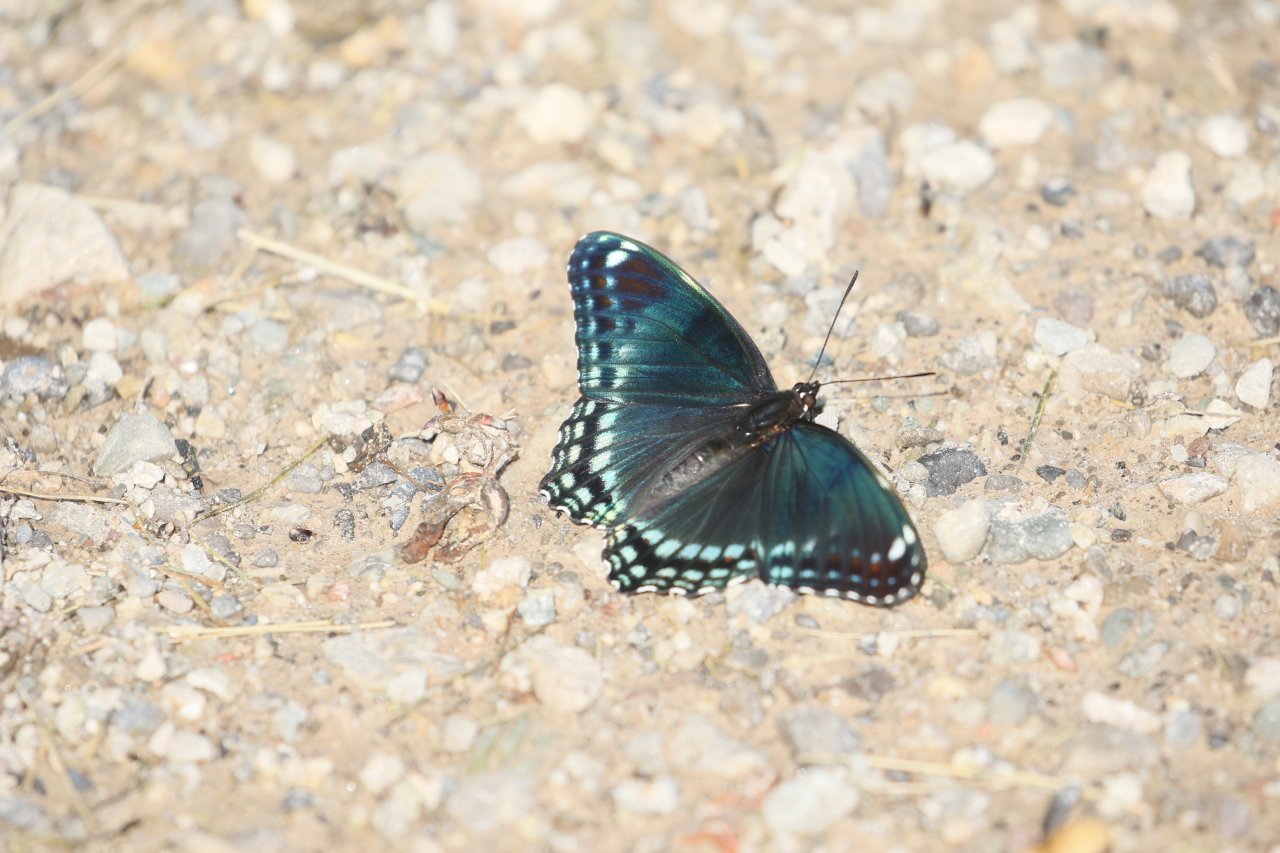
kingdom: Animalia
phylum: Arthropoda
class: Insecta
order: Lepidoptera
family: Nymphalidae
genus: Limenitis
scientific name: Limenitis astyanax
